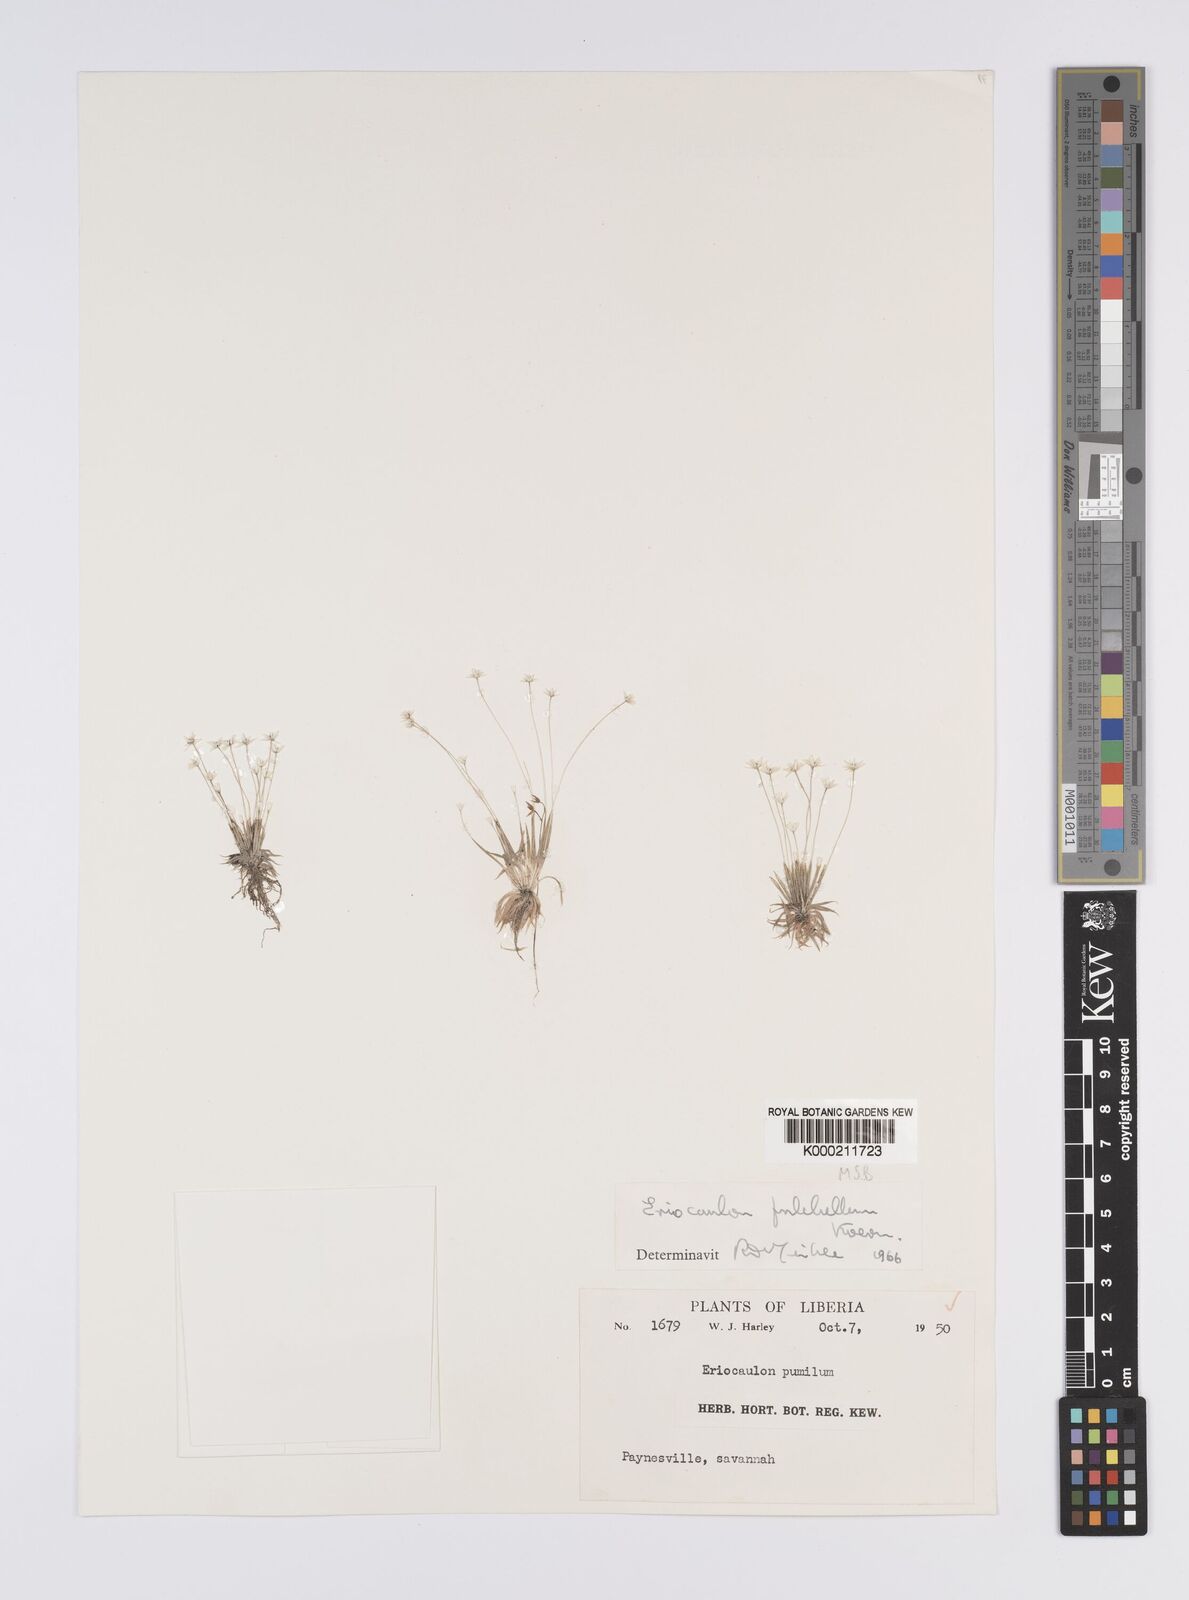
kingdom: Plantae
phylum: Tracheophyta
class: Liliopsida
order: Poales
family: Eriocaulaceae
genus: Eriocaulon
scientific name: Eriocaulon
